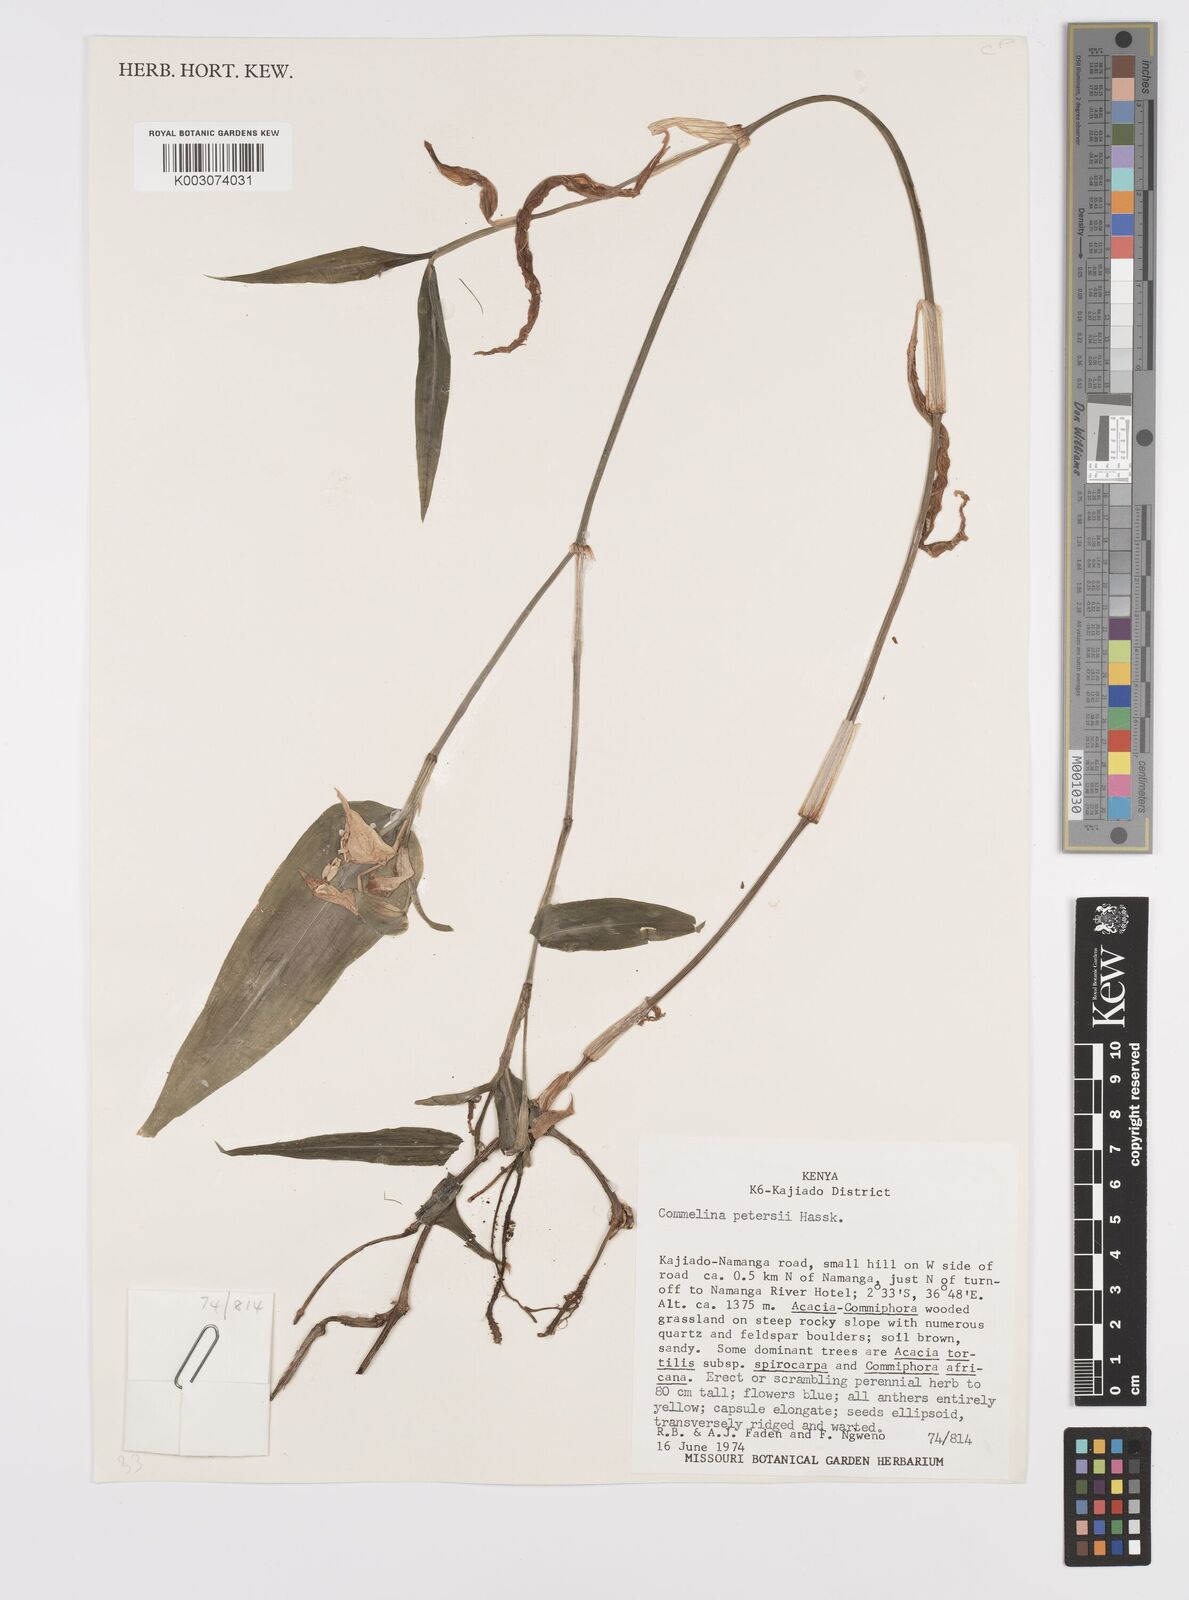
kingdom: Plantae
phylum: Tracheophyta
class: Liliopsida
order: Commelinales
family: Commelinaceae
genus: Commelina
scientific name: Commelina petersii
